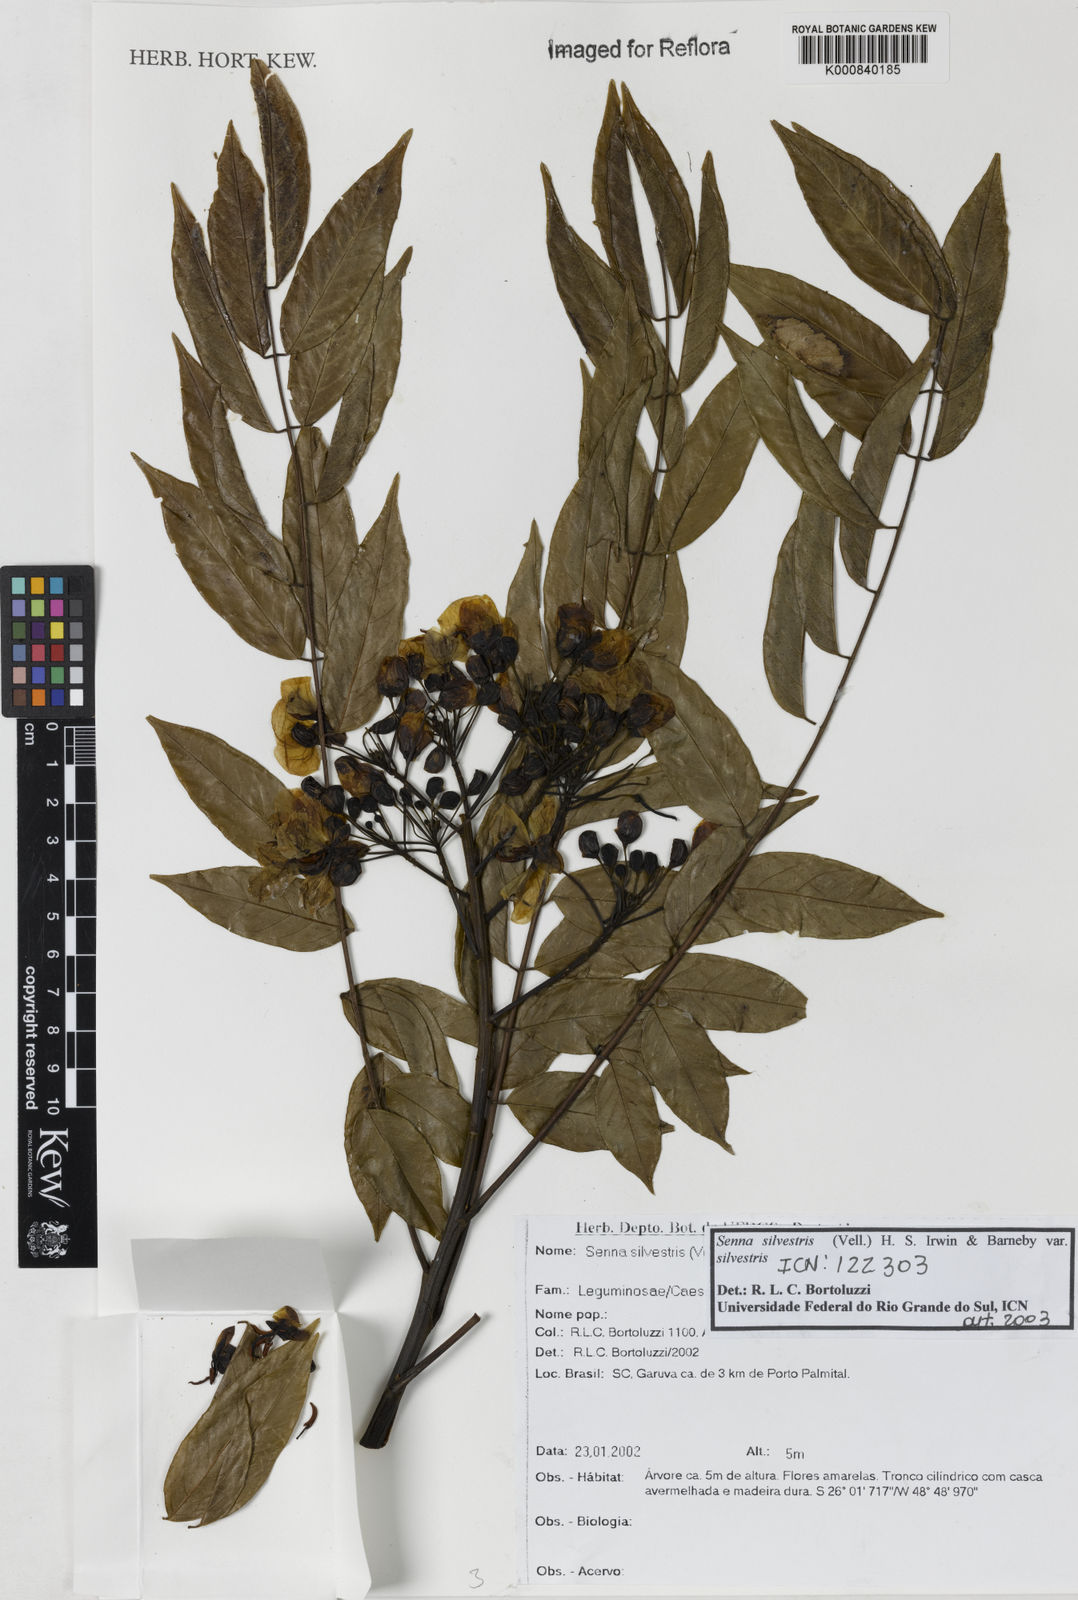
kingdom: Plantae
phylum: Tracheophyta
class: Magnoliopsida
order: Fabales
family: Fabaceae
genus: Senna
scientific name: Senna silvestris
